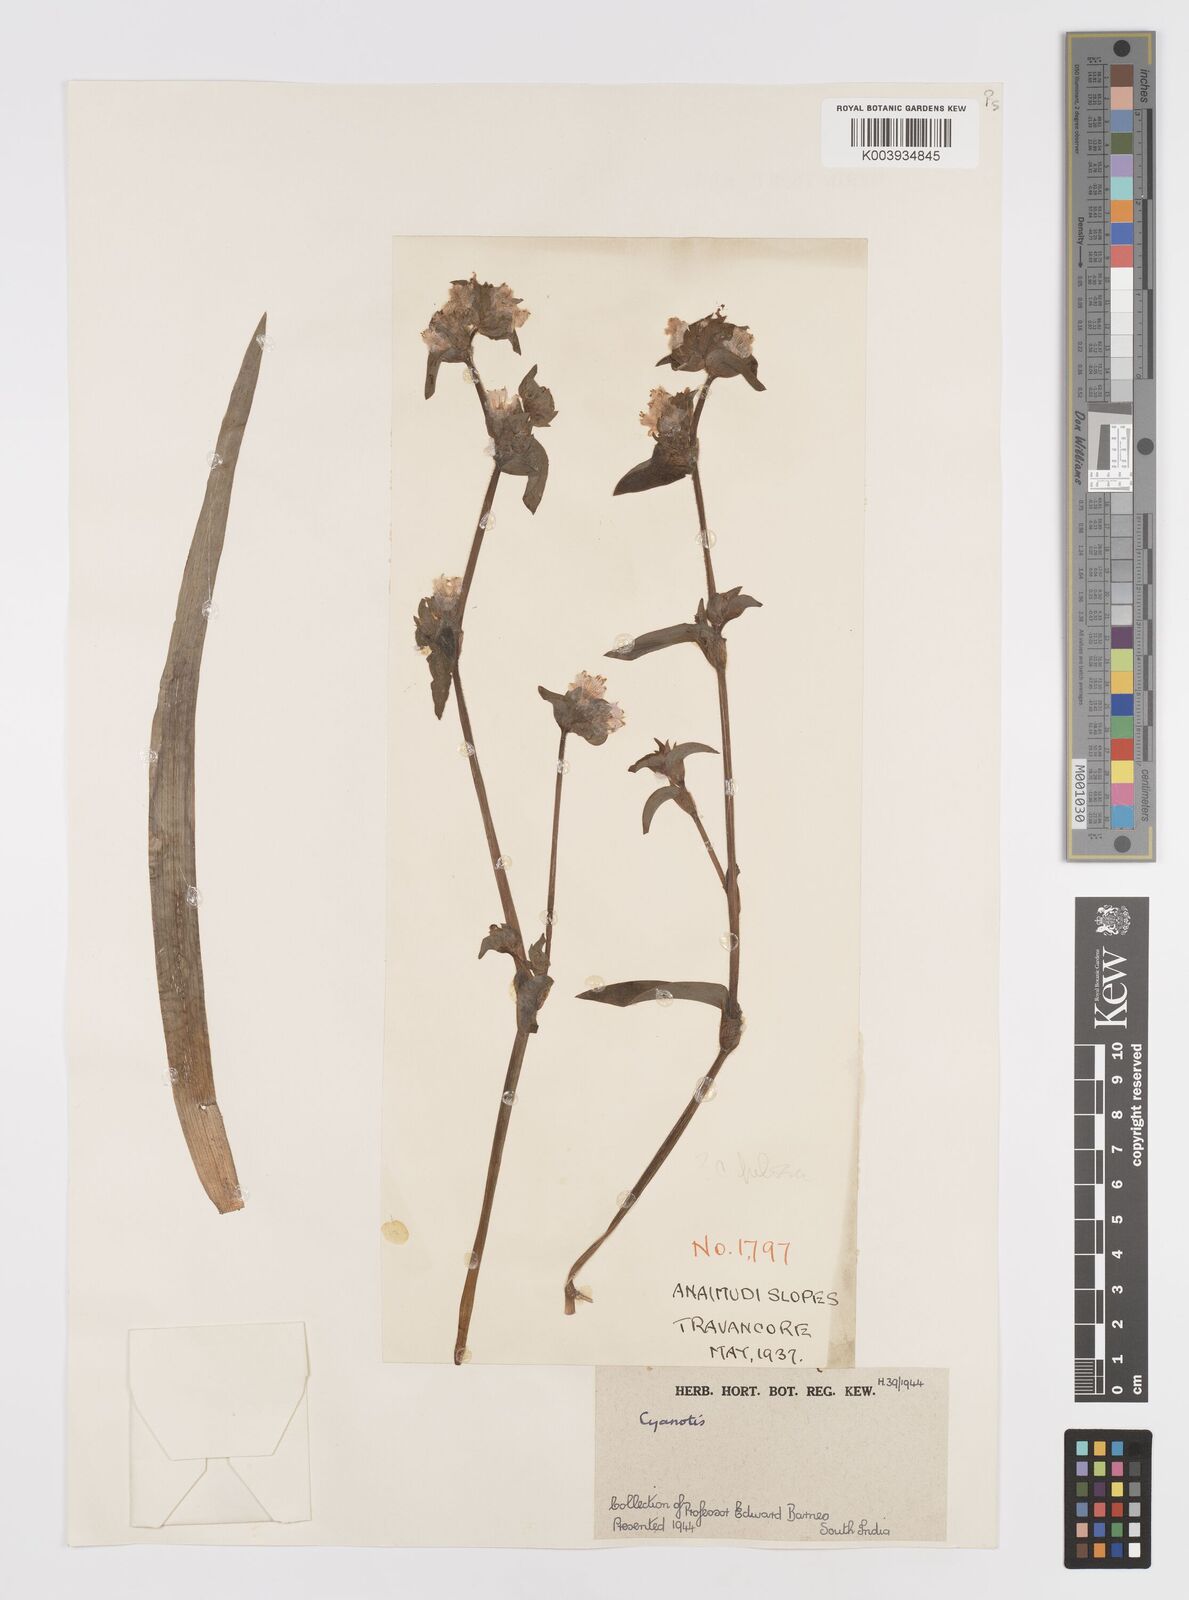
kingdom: Plantae
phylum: Tracheophyta
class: Liliopsida
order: Commelinales
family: Commelinaceae
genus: Cyanotis
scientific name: Cyanotis
